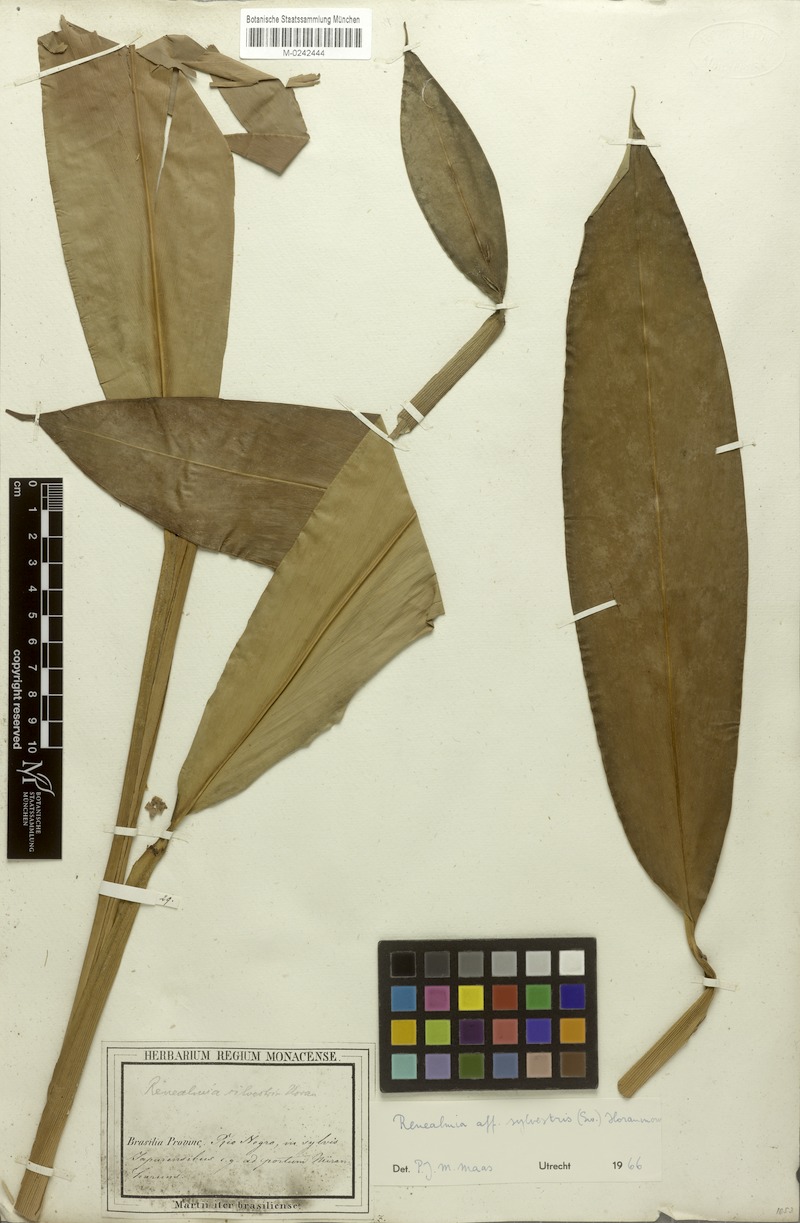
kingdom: Plantae
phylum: Tracheophyta
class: Liliopsida
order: Zingiberales
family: Zingiberaceae
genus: Renealmia
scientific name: Renealmia striata
